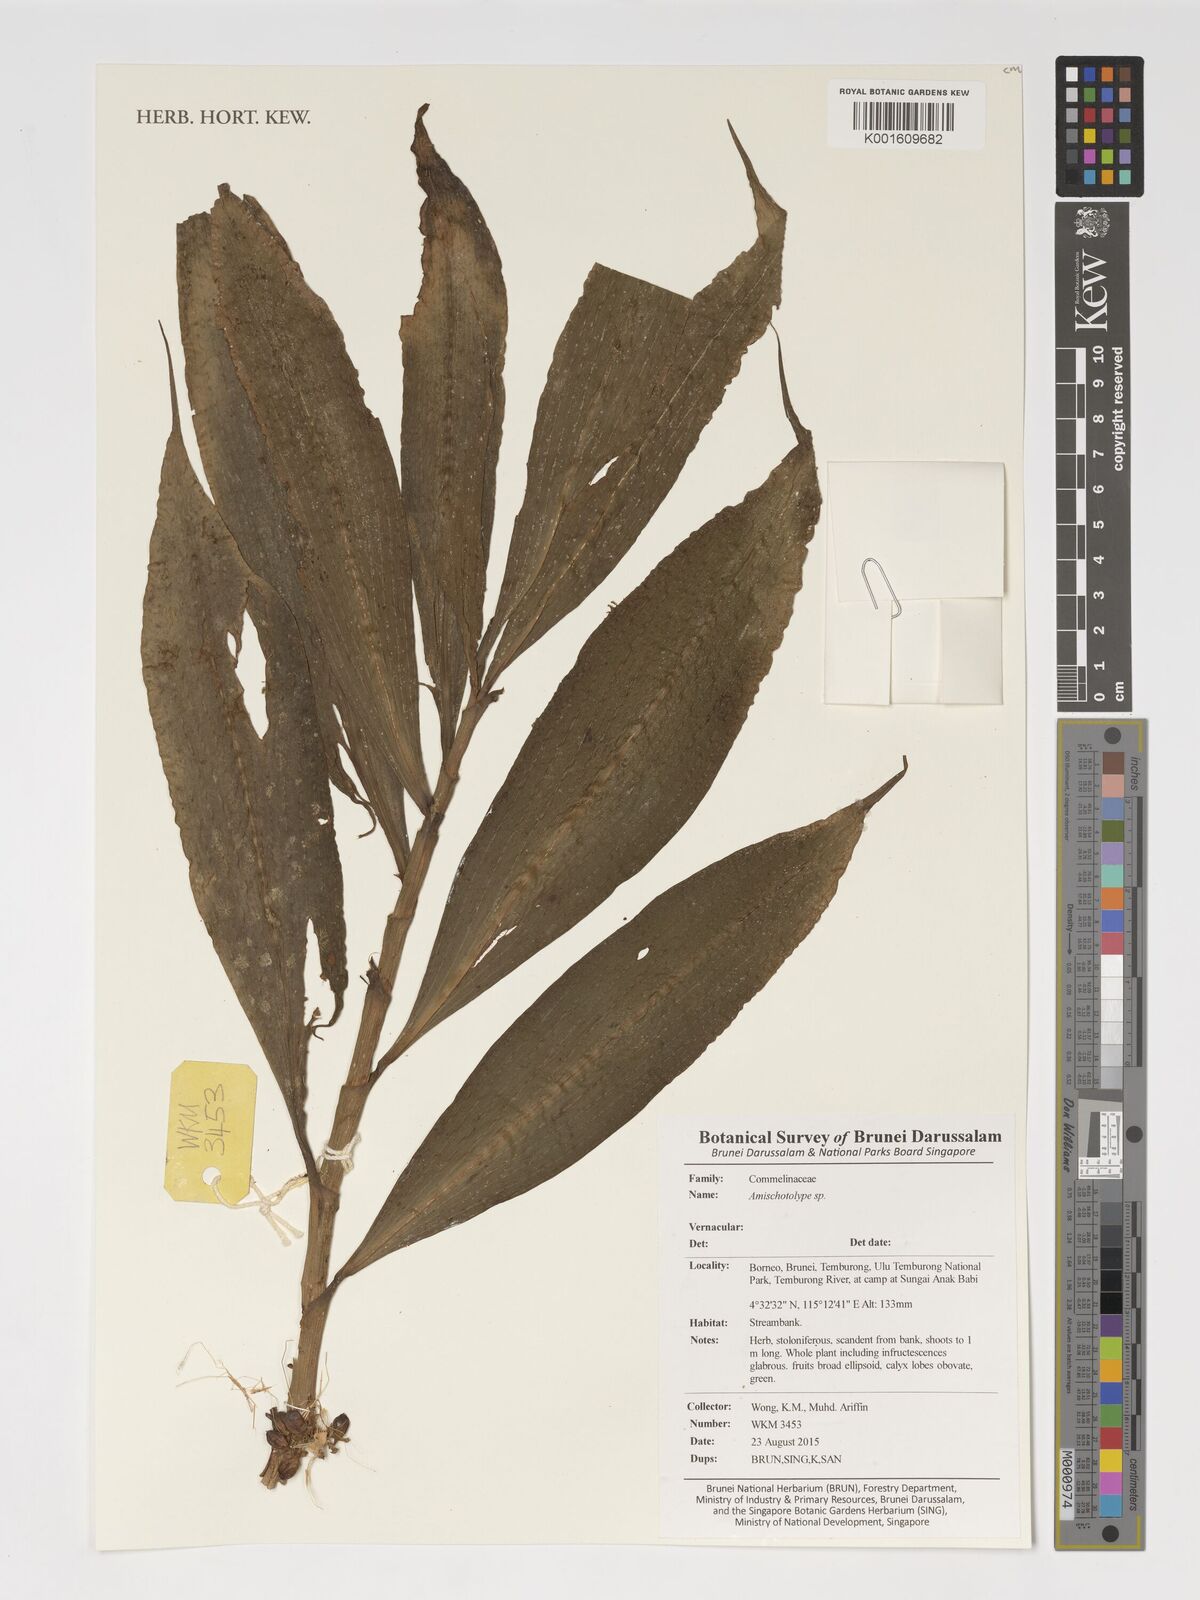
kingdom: Plantae
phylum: Tracheophyta
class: Liliopsida
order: Commelinales
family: Commelinaceae
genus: Amischotolype
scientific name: Amischotolype
